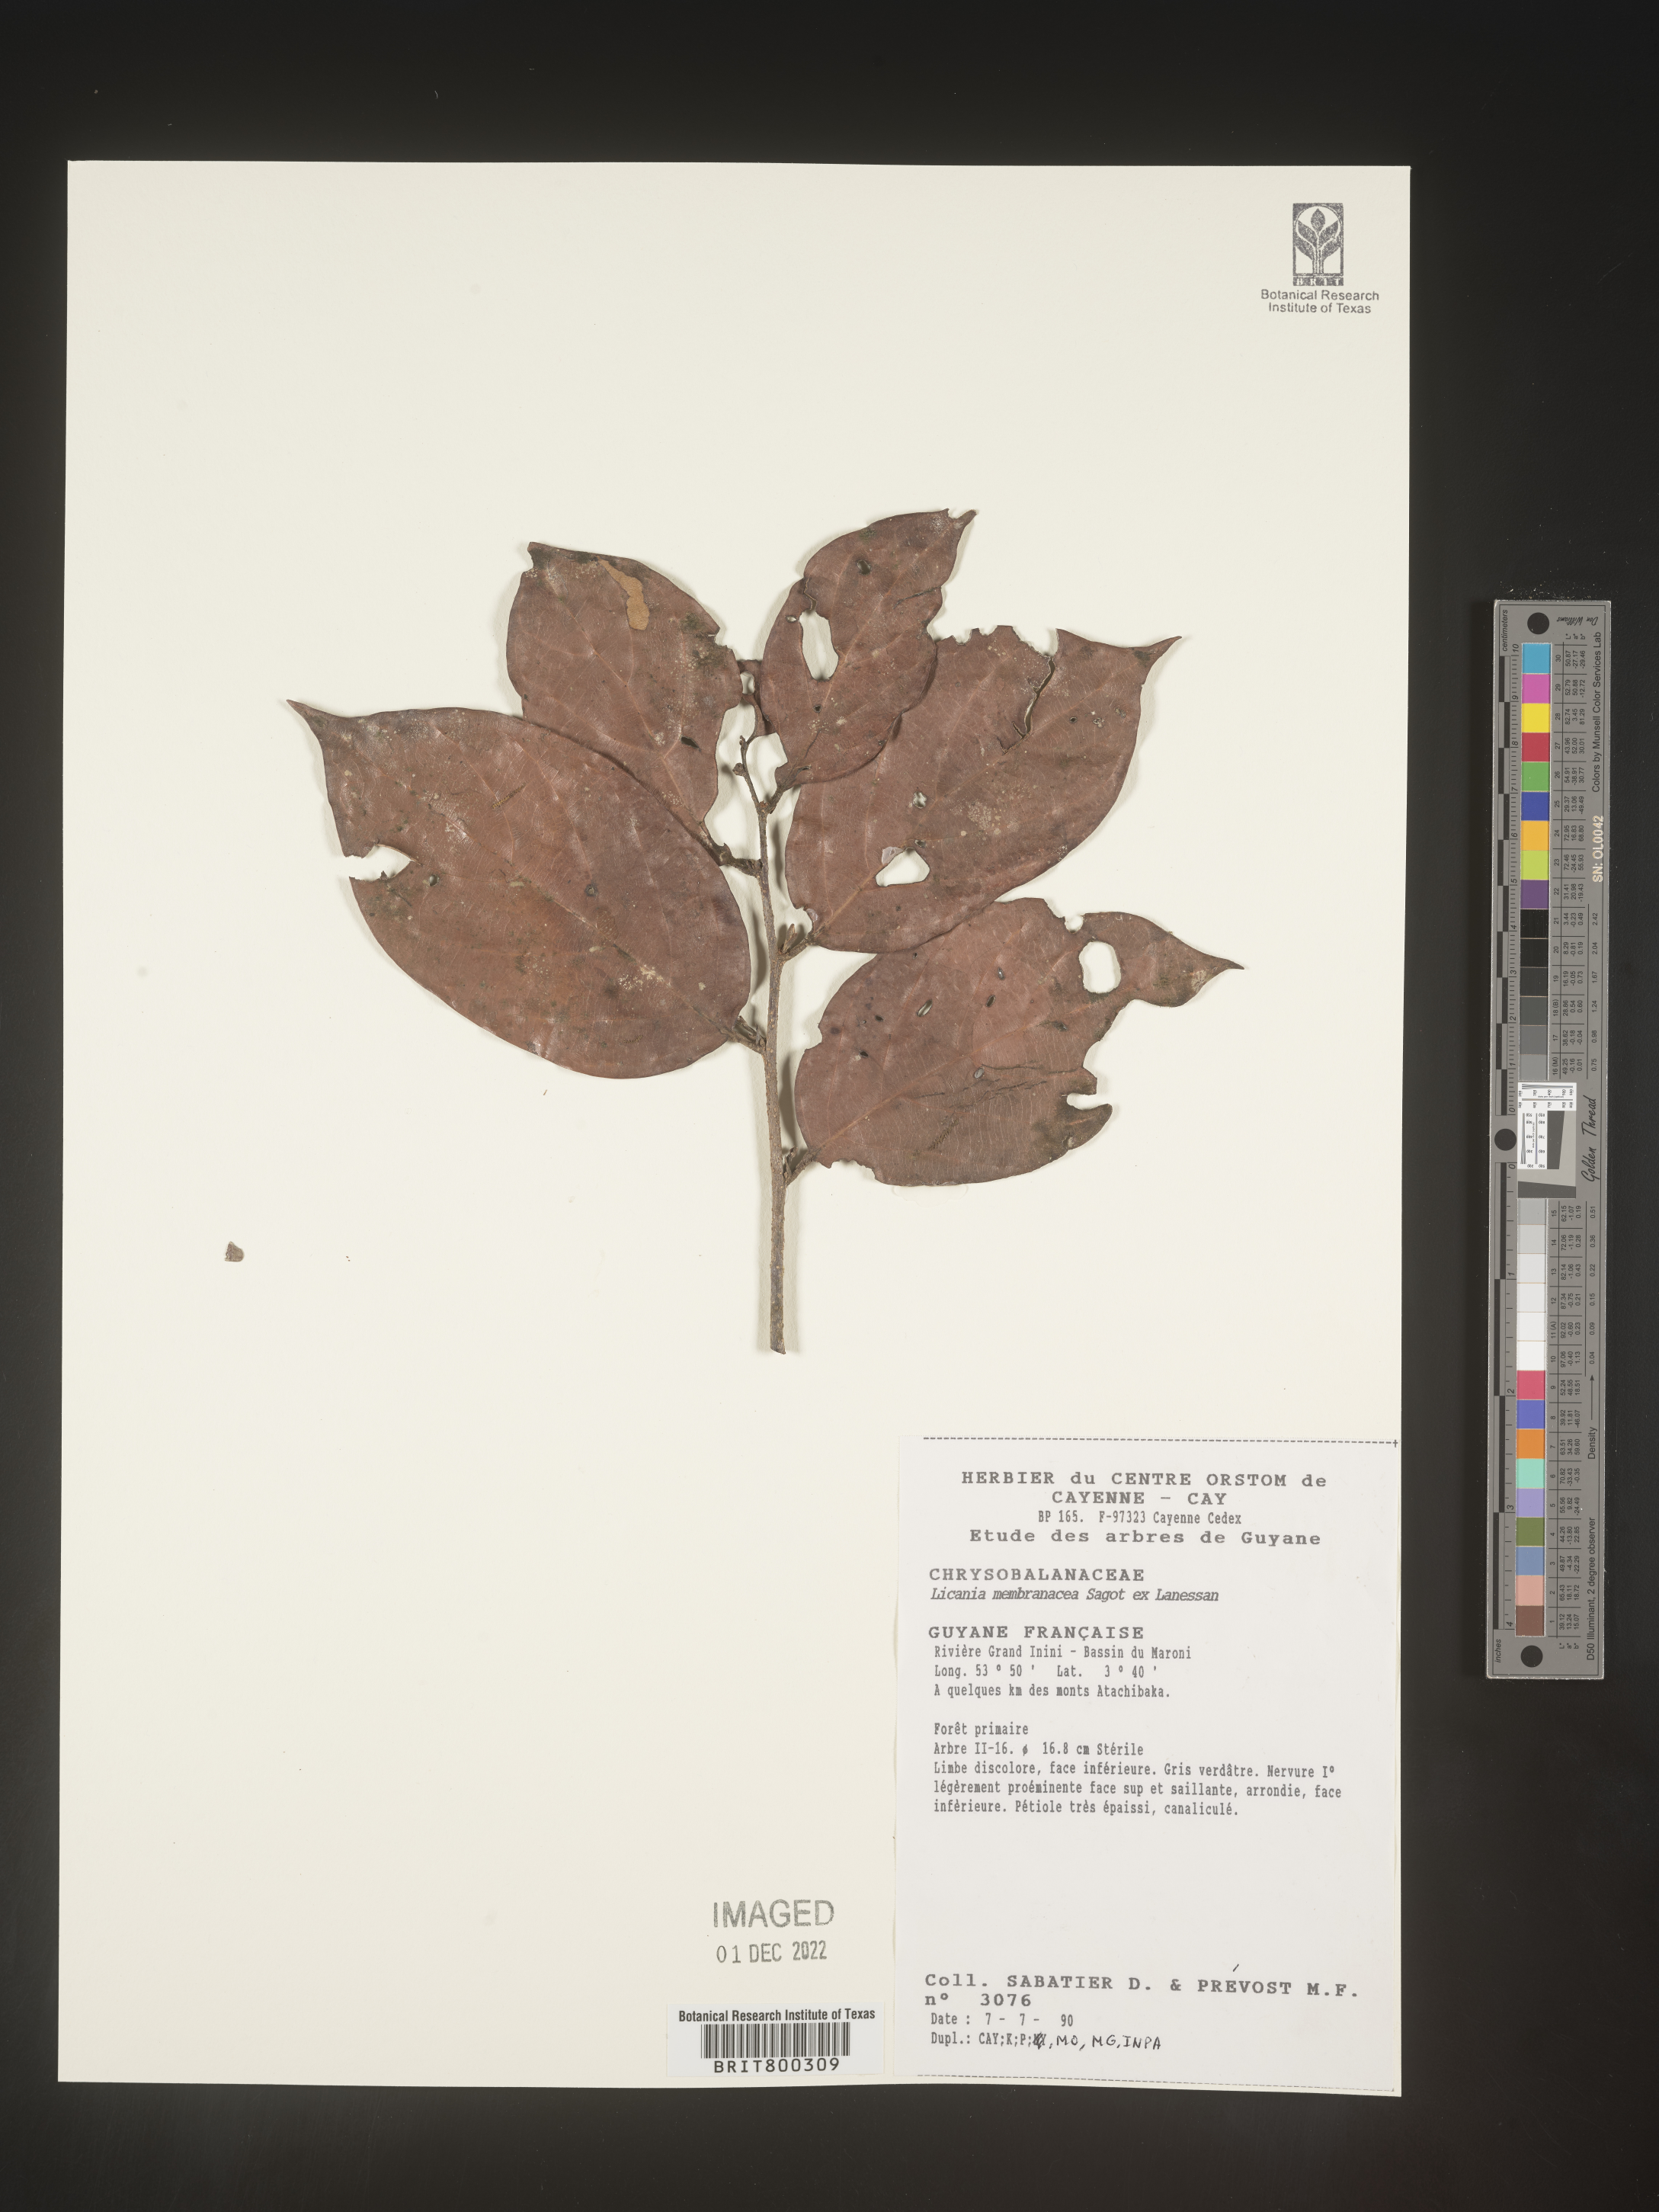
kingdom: Plantae
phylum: Tracheophyta
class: Magnoliopsida
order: Malpighiales
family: Chrysobalanaceae
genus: Licania
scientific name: Licania
